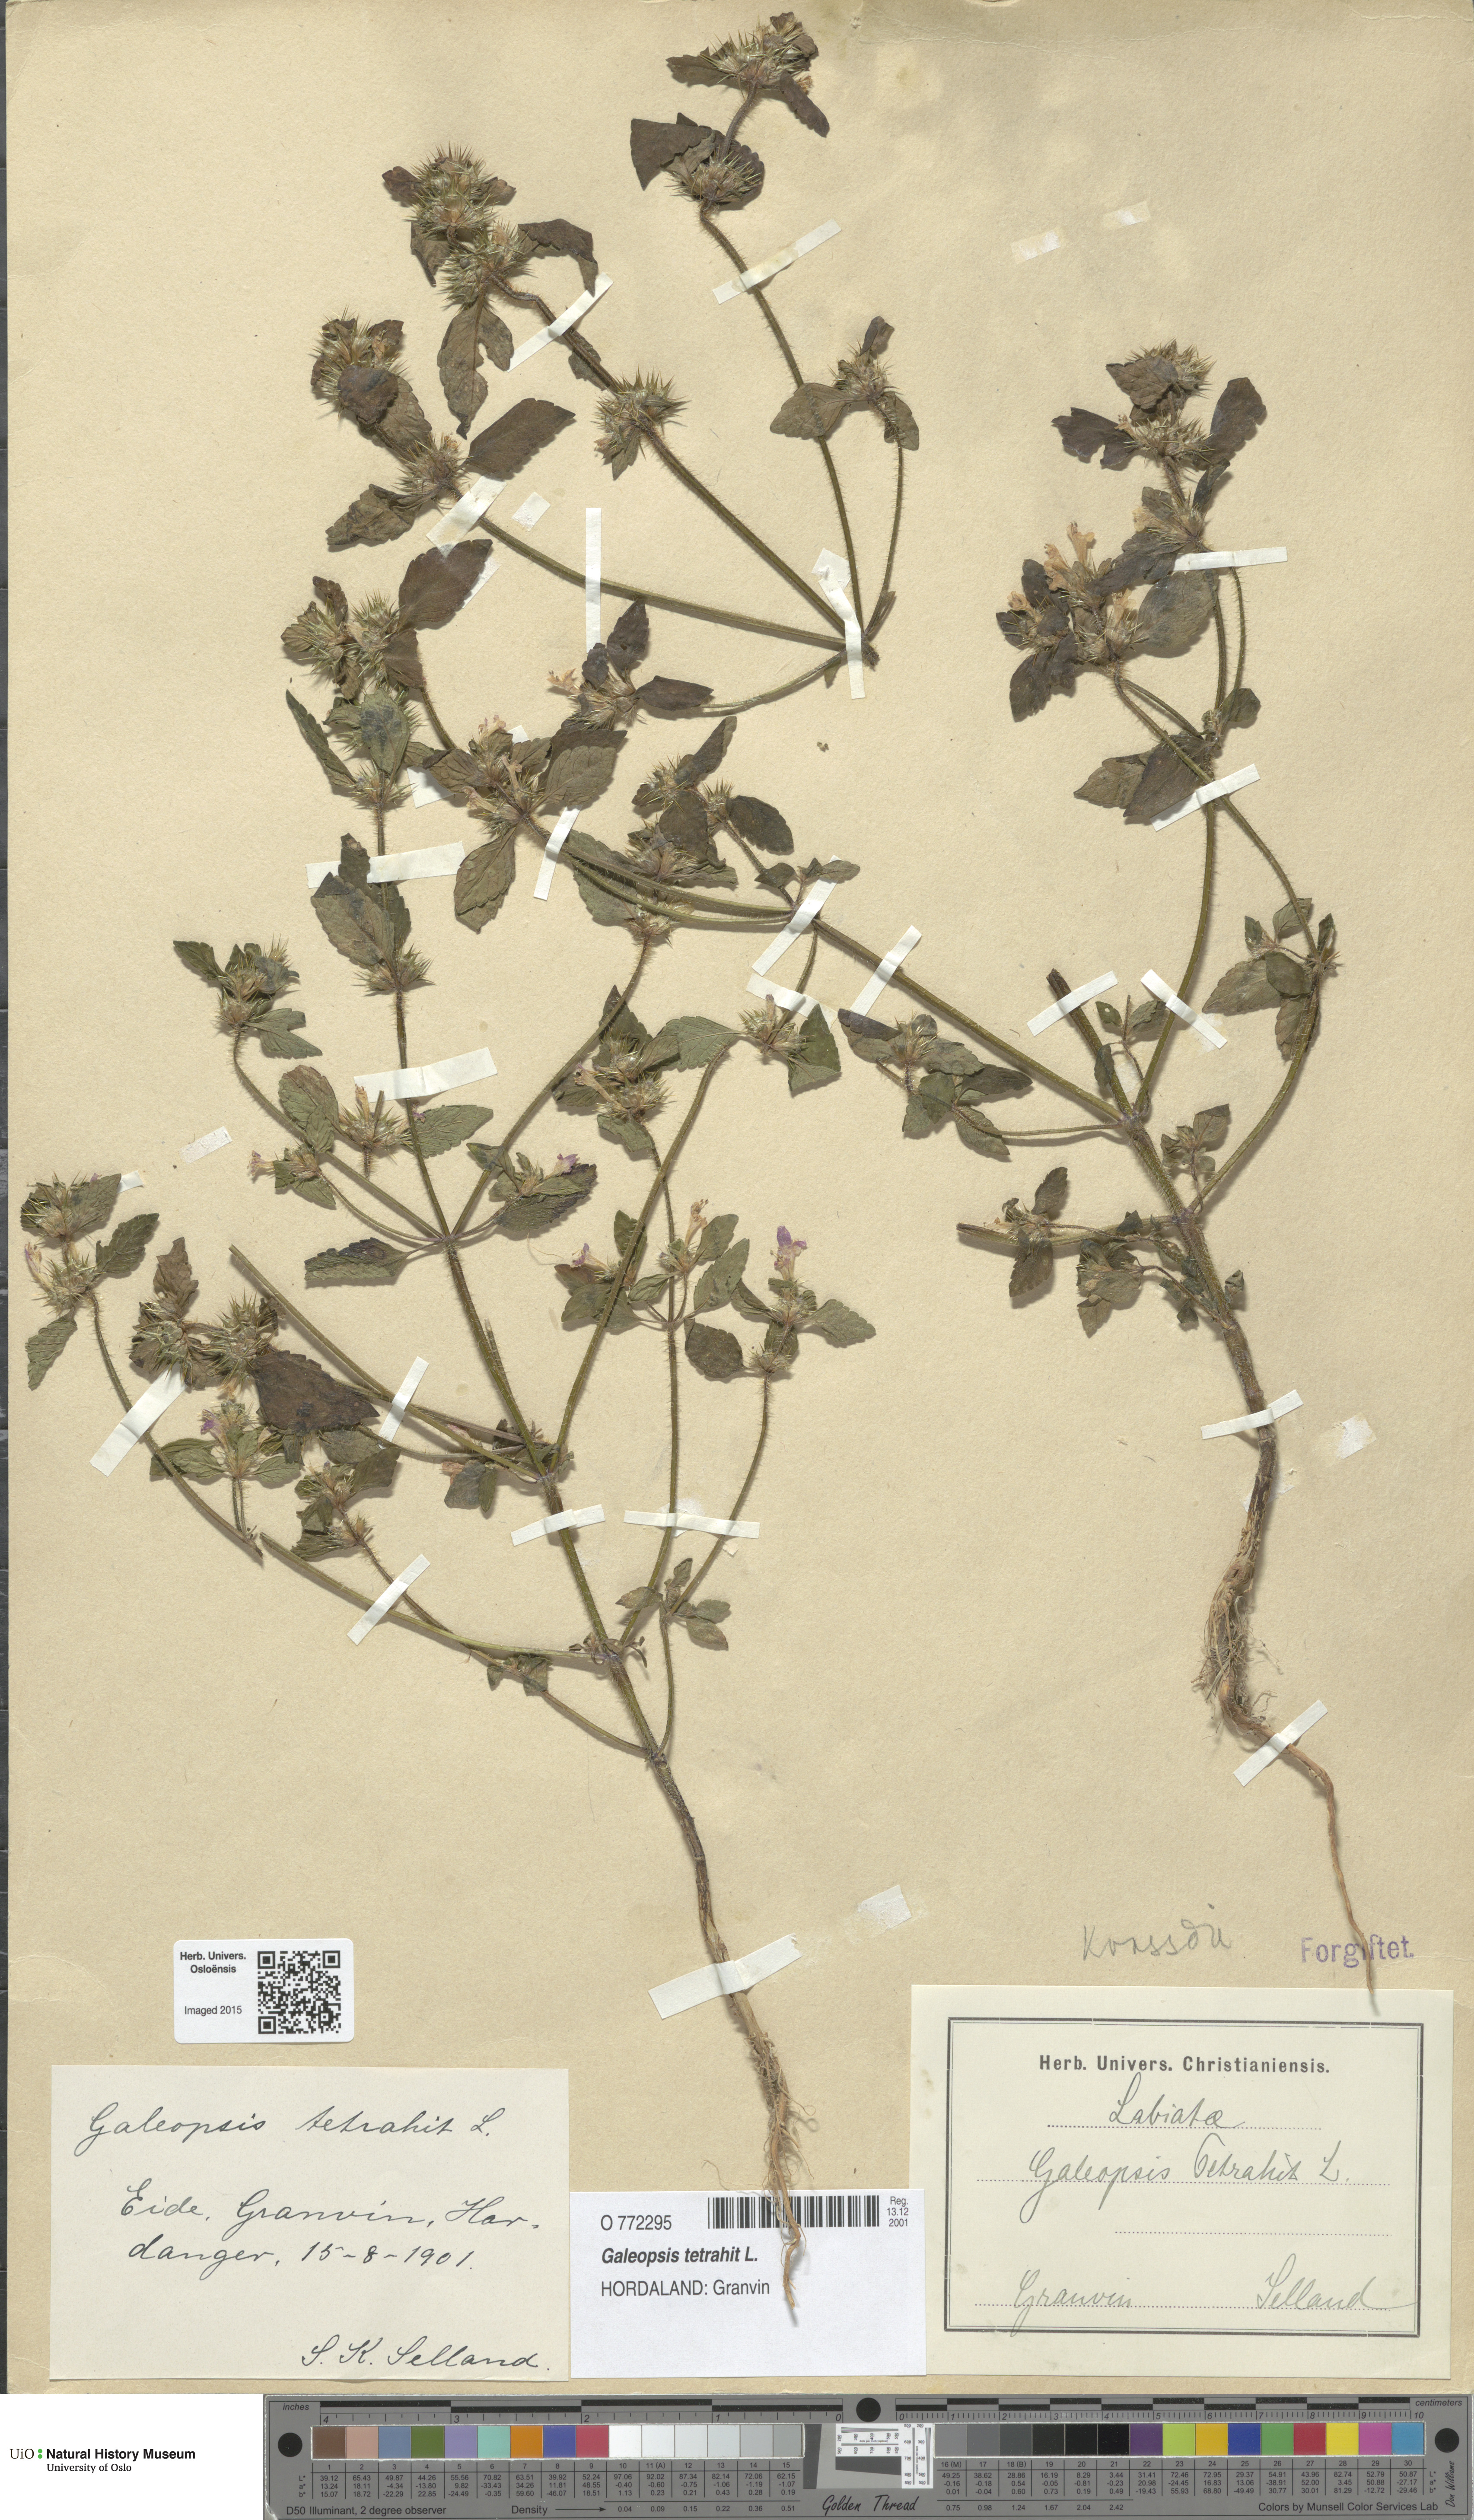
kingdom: Plantae
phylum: Tracheophyta
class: Magnoliopsida
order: Lamiales
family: Lamiaceae
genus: Galeopsis
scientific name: Galeopsis tetrahit
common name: Common hemp-nettle
